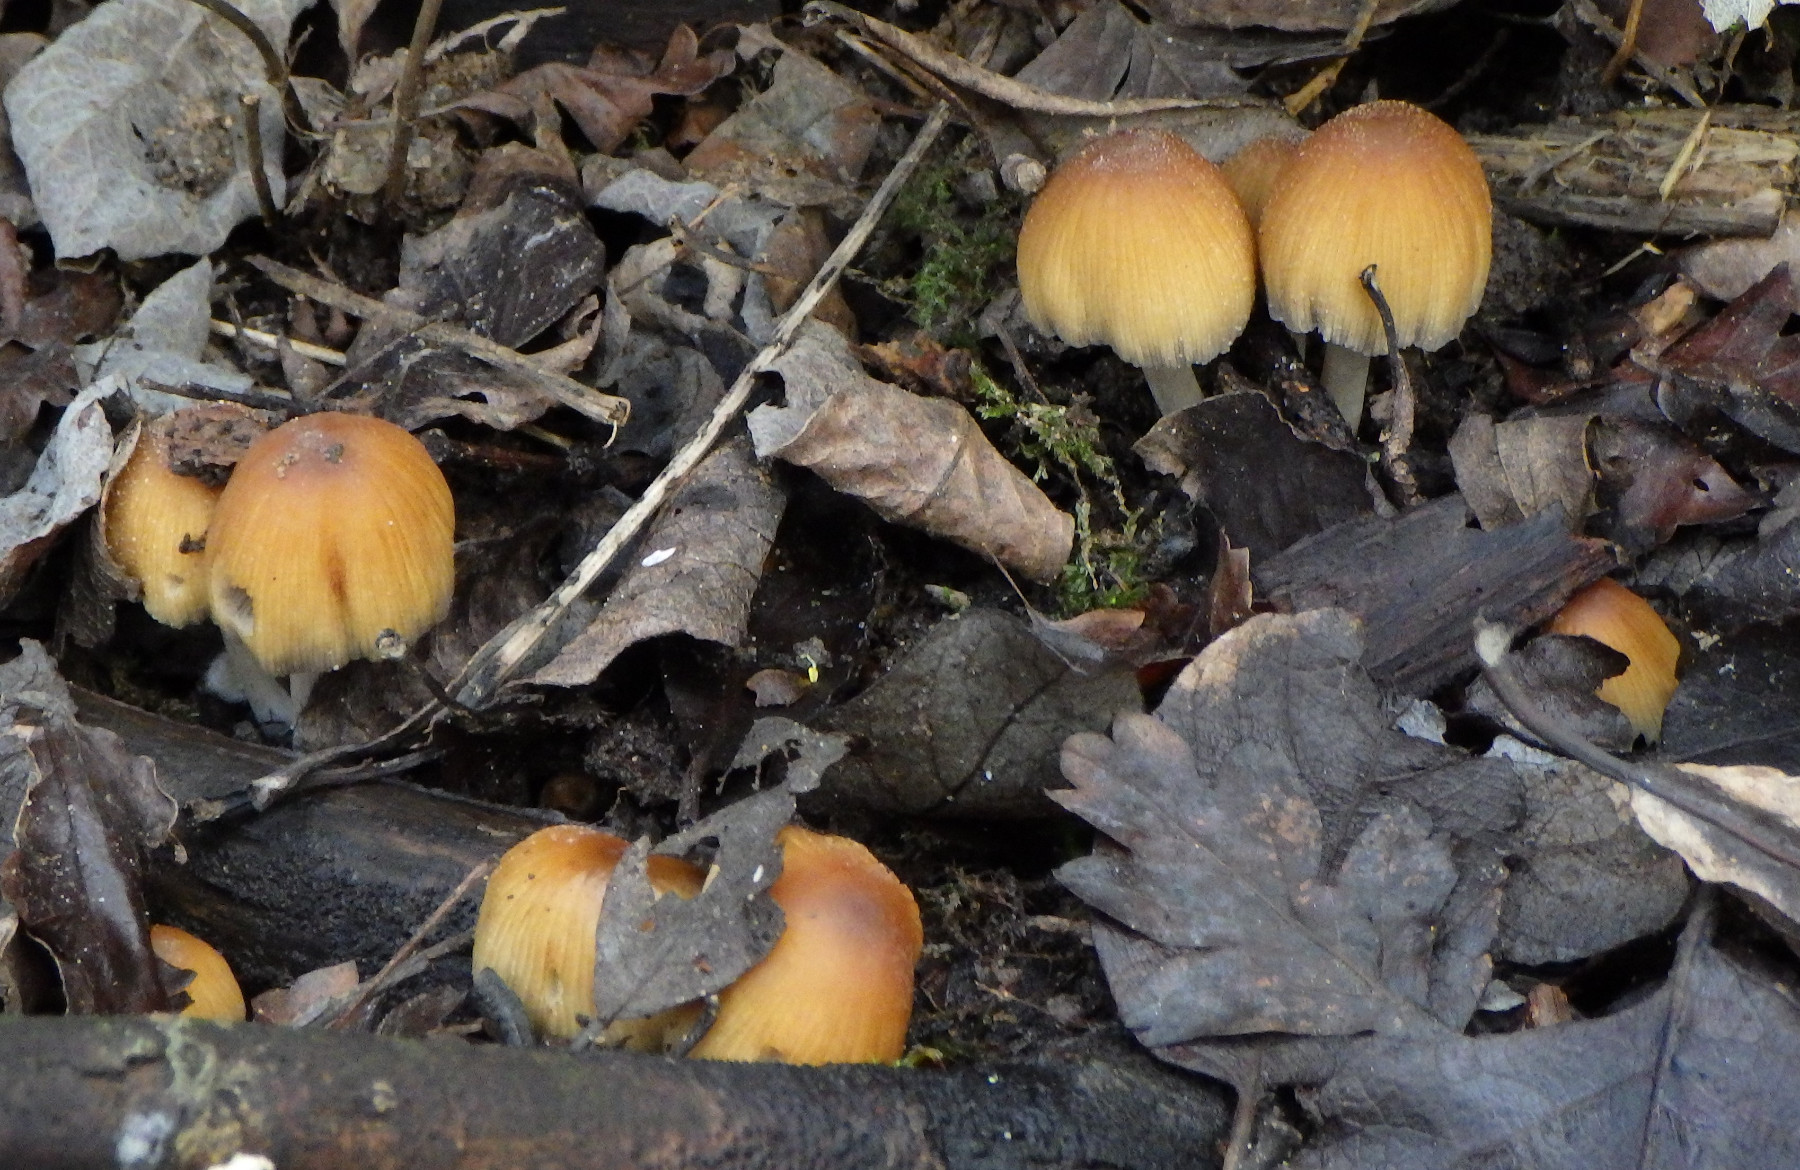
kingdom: Fungi
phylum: Basidiomycota
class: Agaricomycetes
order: Agaricales
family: Psathyrellaceae
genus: Coprinellus
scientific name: Coprinellus
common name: blækhat
